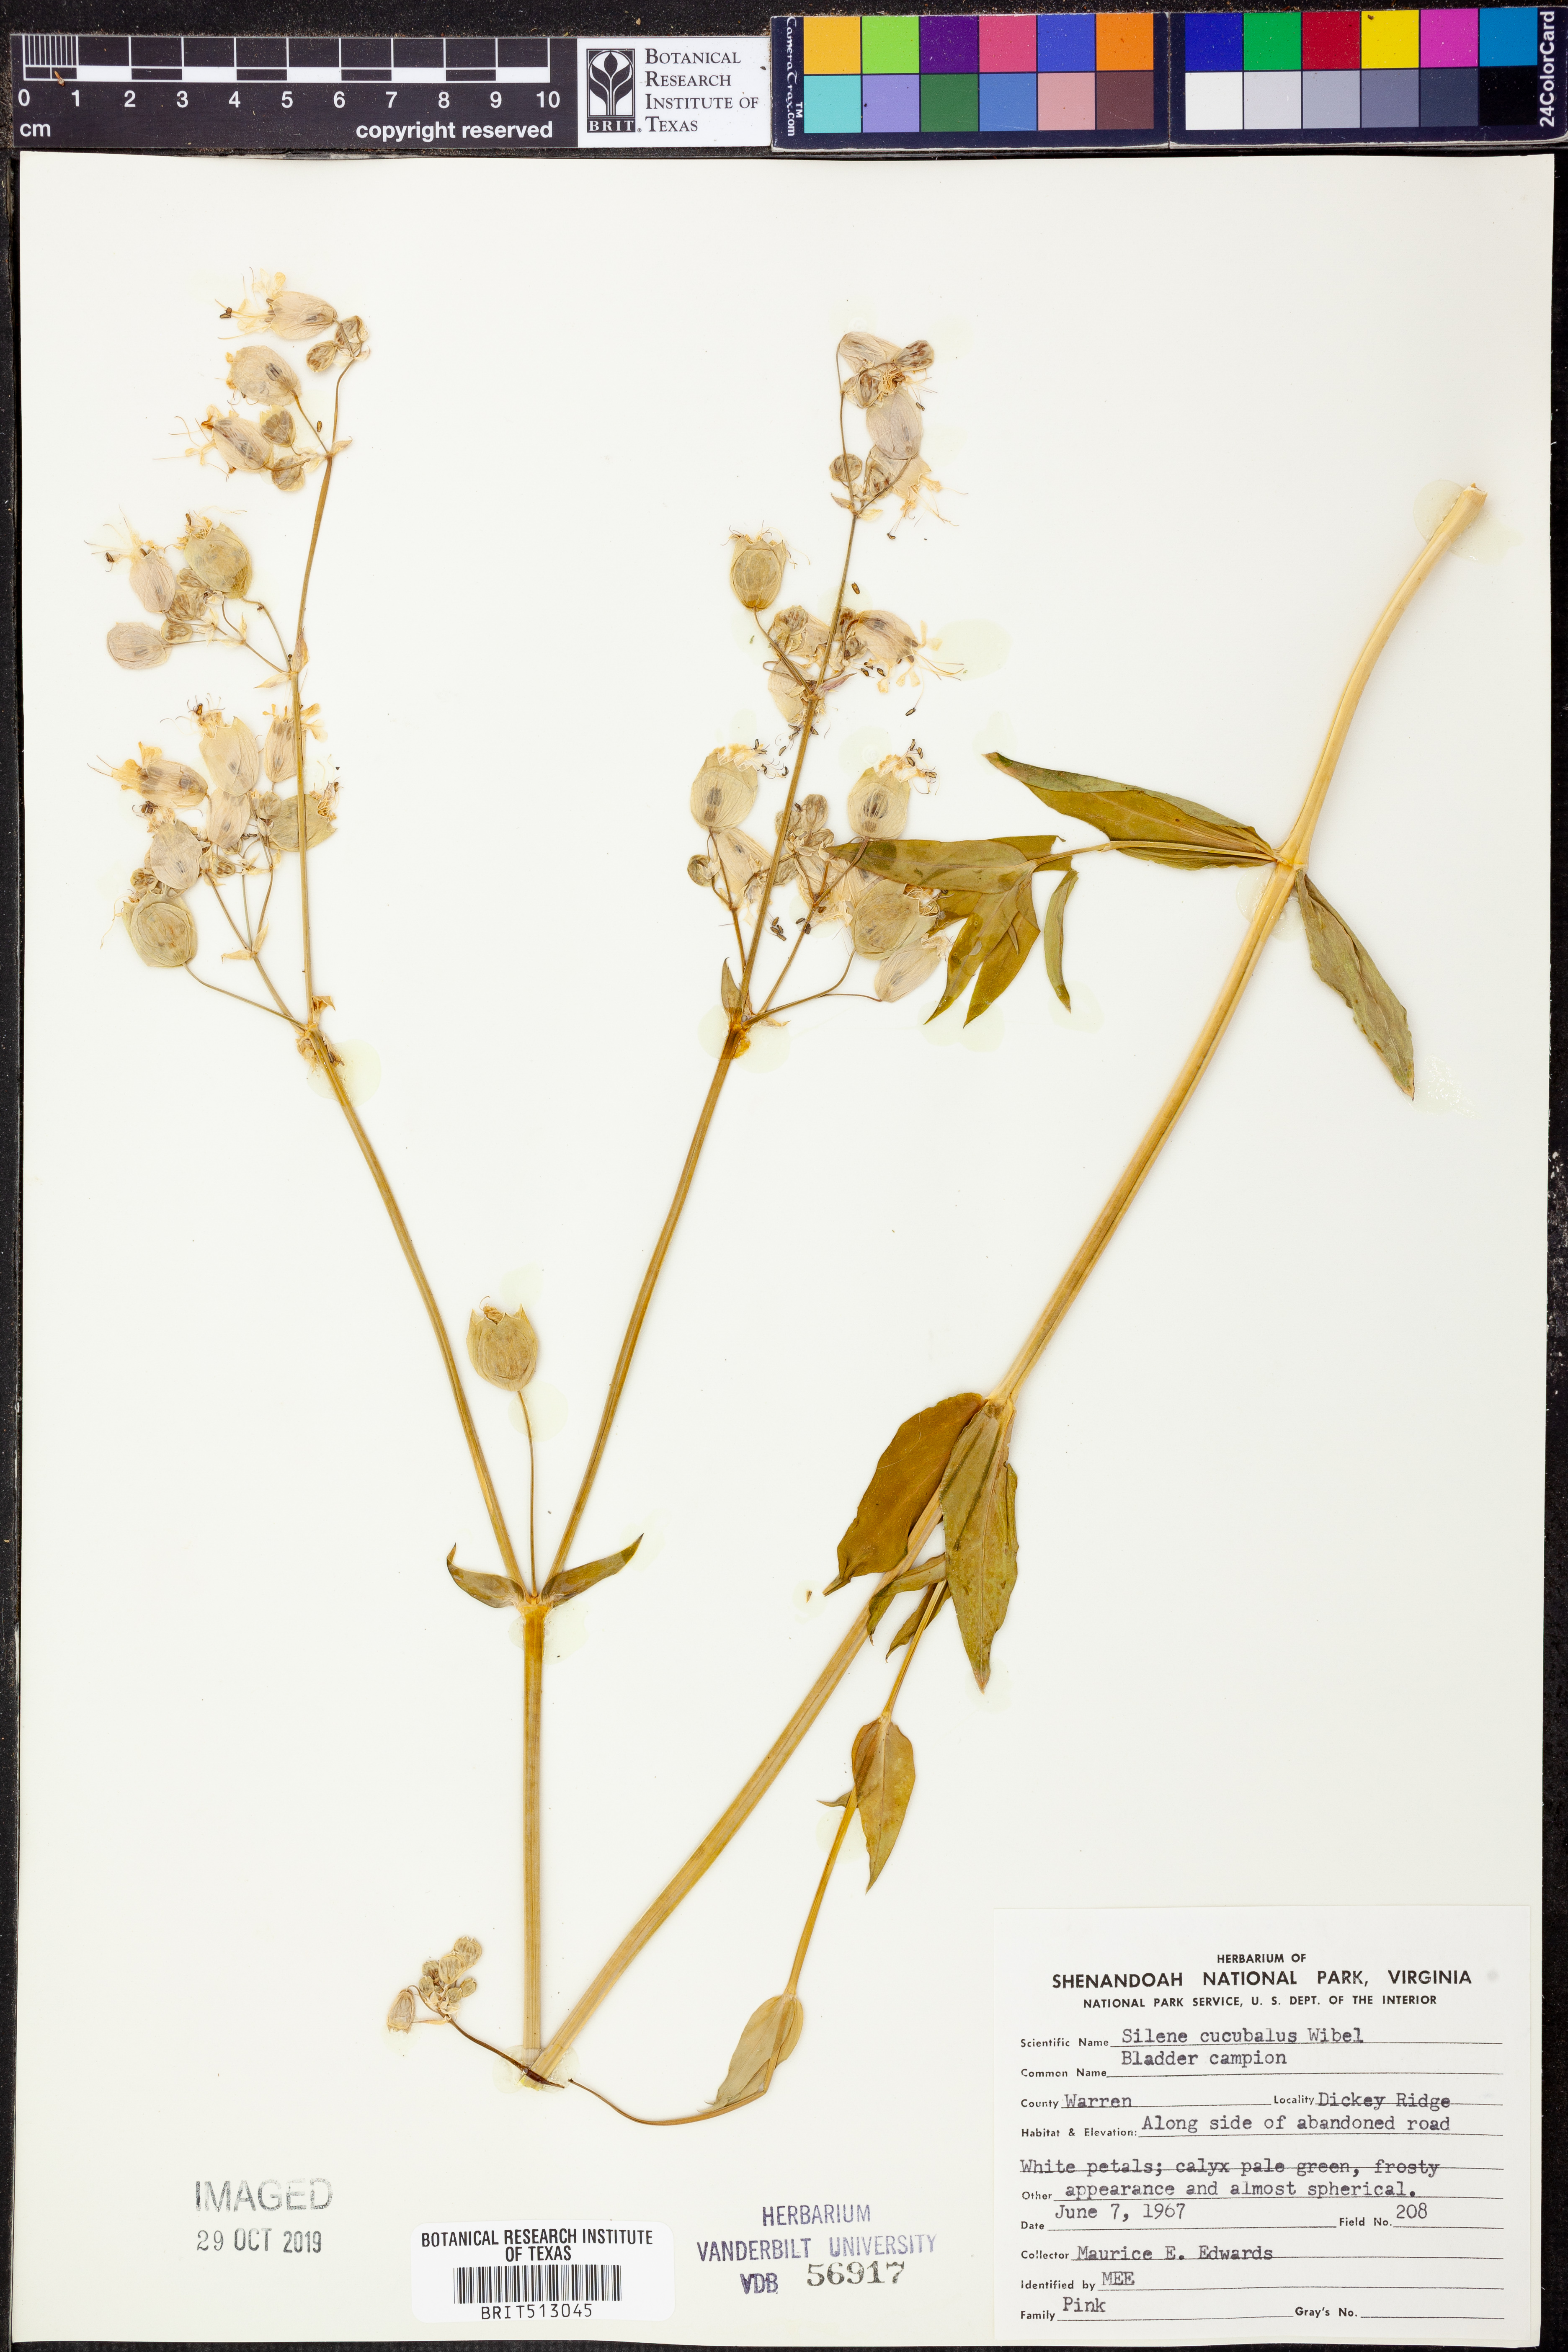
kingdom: Plantae
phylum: Tracheophyta
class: Magnoliopsida
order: Caryophyllales
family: Caryophyllaceae
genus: Silene
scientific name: Silene vulgaris
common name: Bladder campion
